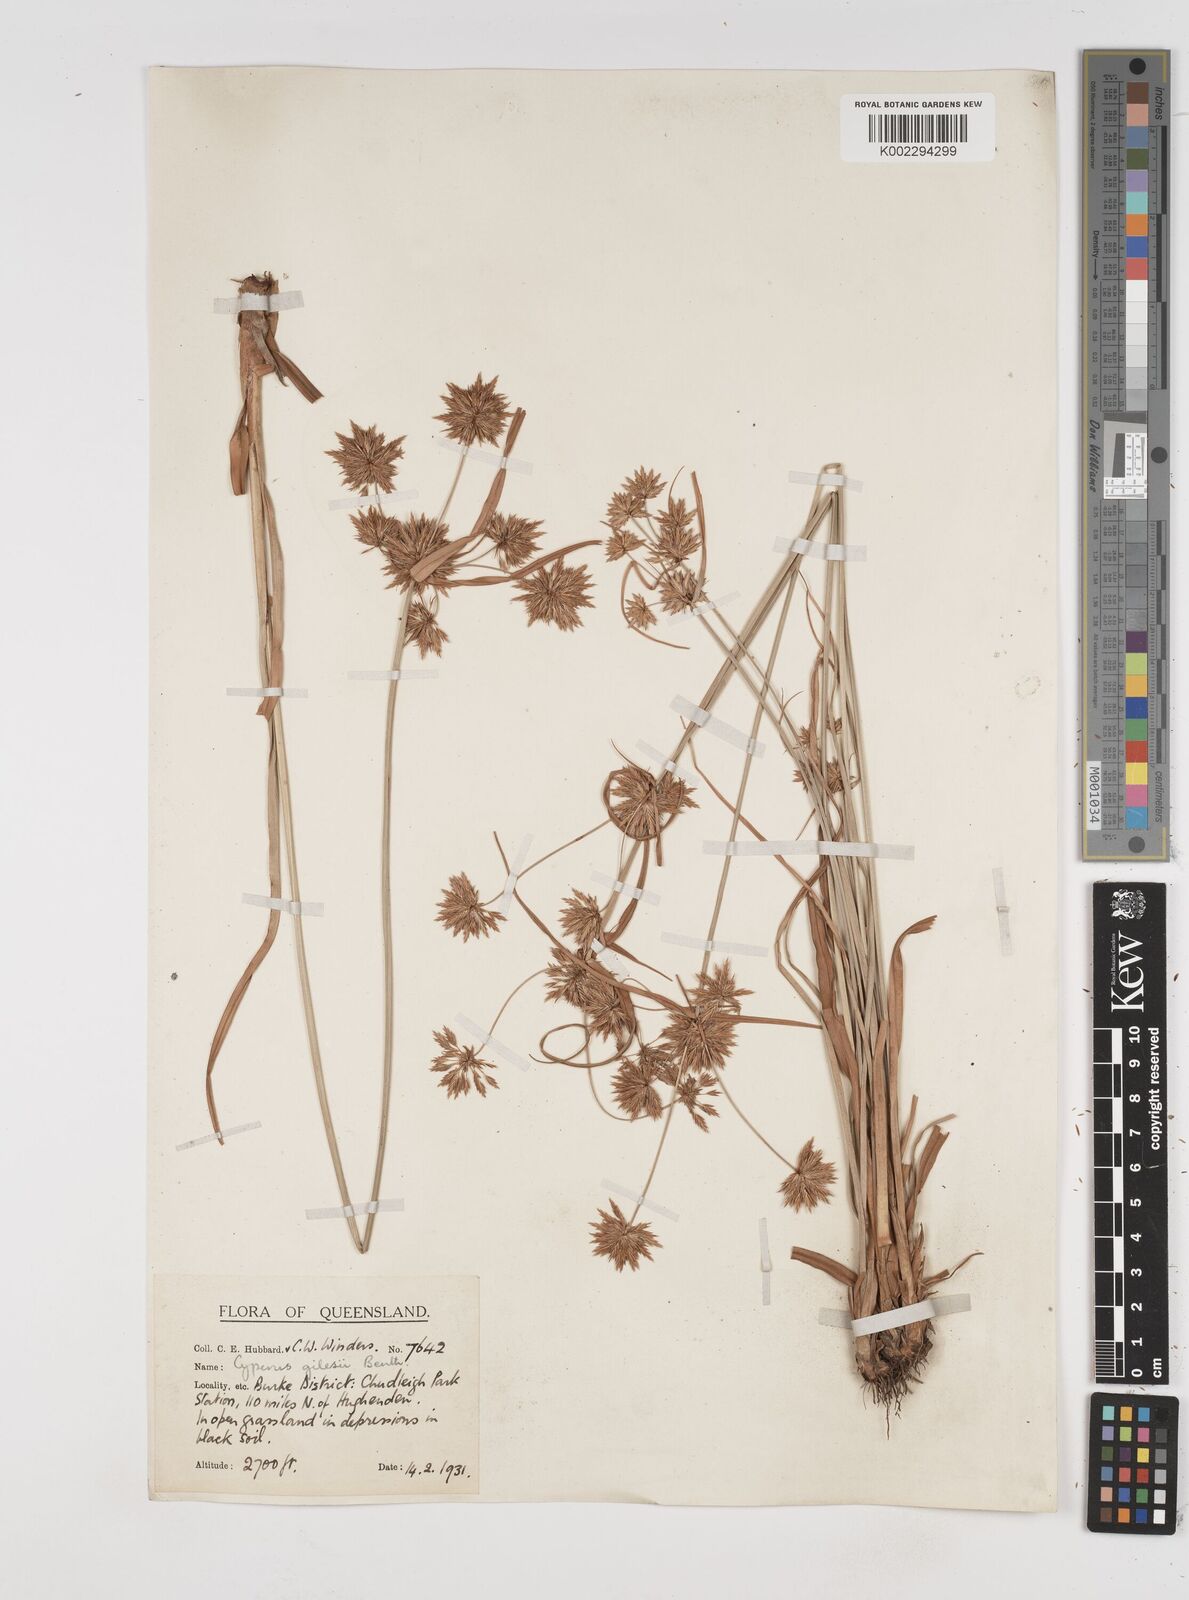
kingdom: Plantae
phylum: Tracheophyta
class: Liliopsida
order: Poales
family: Cyperaceae
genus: Cyperus
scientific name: Cyperus gilesii
